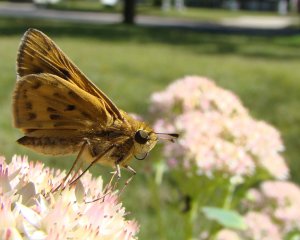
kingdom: Animalia
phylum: Arthropoda
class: Insecta
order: Lepidoptera
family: Hesperiidae
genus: Hylephila
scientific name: Hylephila phyleus
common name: Fiery Skipper
